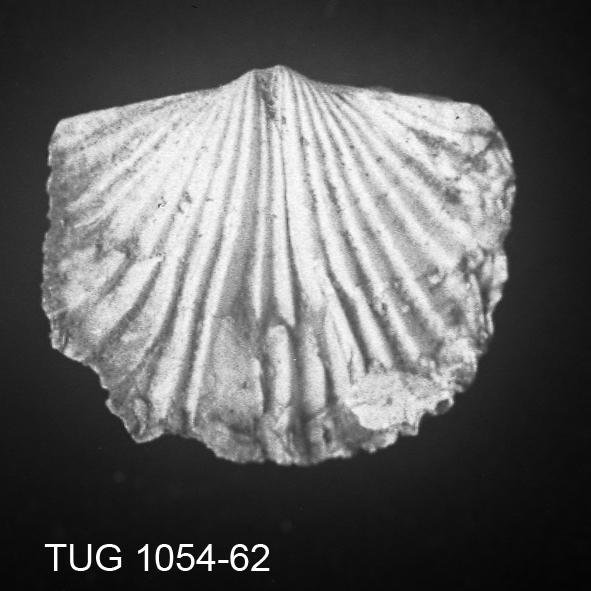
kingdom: Animalia
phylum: Brachiopoda
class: Rhynchonellata
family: Plectorthidae
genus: Platystrophia
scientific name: Platystrophia dentata
